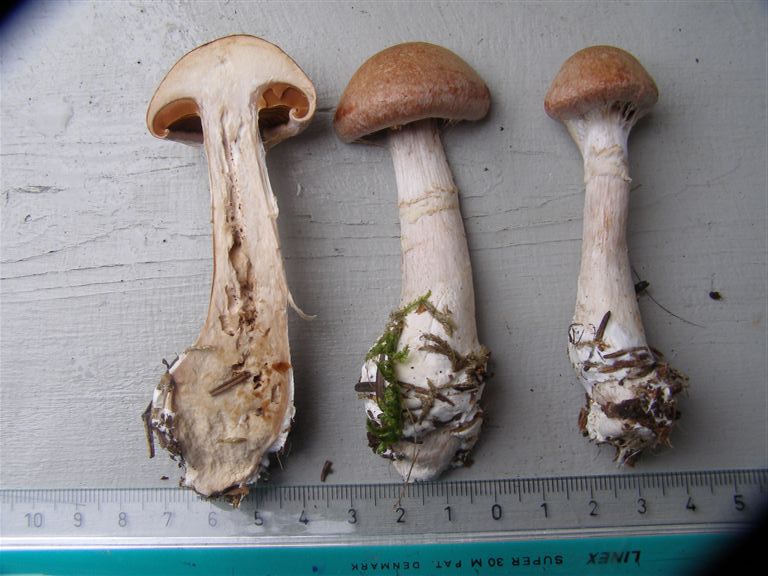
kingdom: Fungi
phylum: Basidiomycota
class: Agaricomycetes
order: Agaricales
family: Cortinariaceae
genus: Cortinarius
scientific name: Cortinarius laniger
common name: teglbladet slørhat
